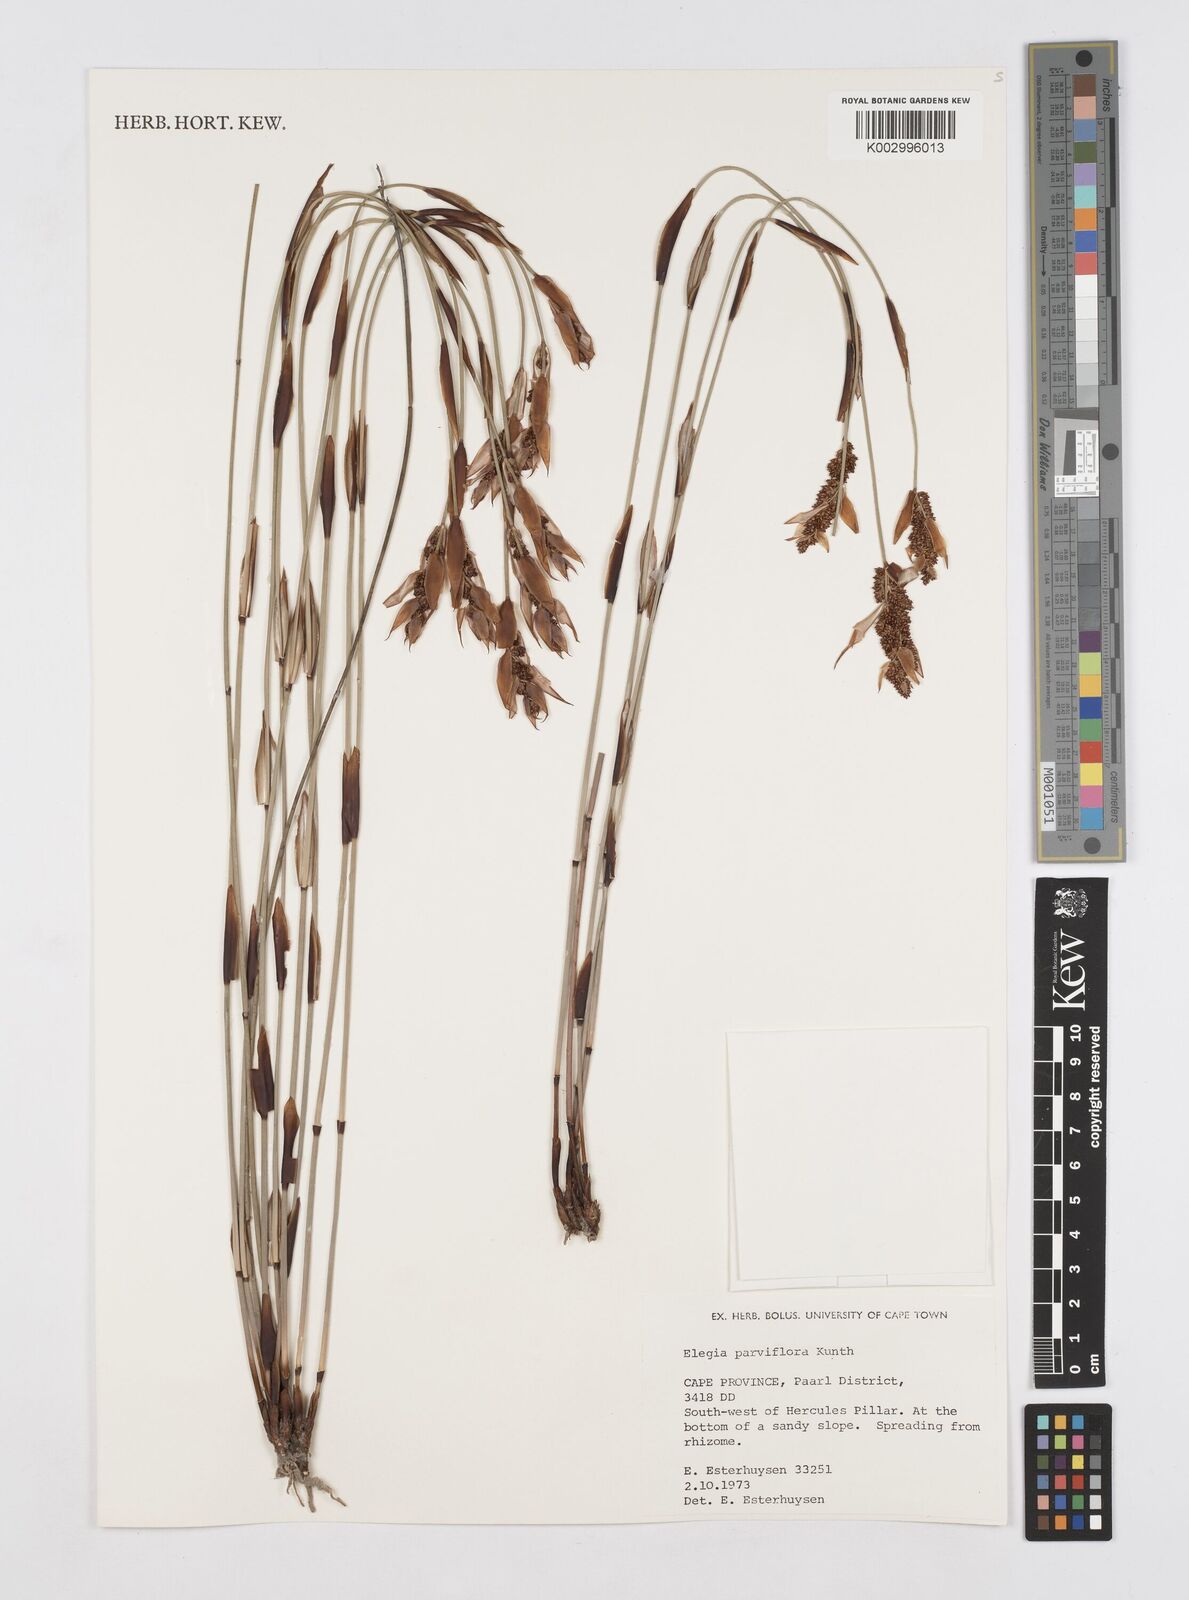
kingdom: Plantae
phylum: Tracheophyta
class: Liliopsida
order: Poales
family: Restionaceae
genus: Cannomois
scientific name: Cannomois parviflora
